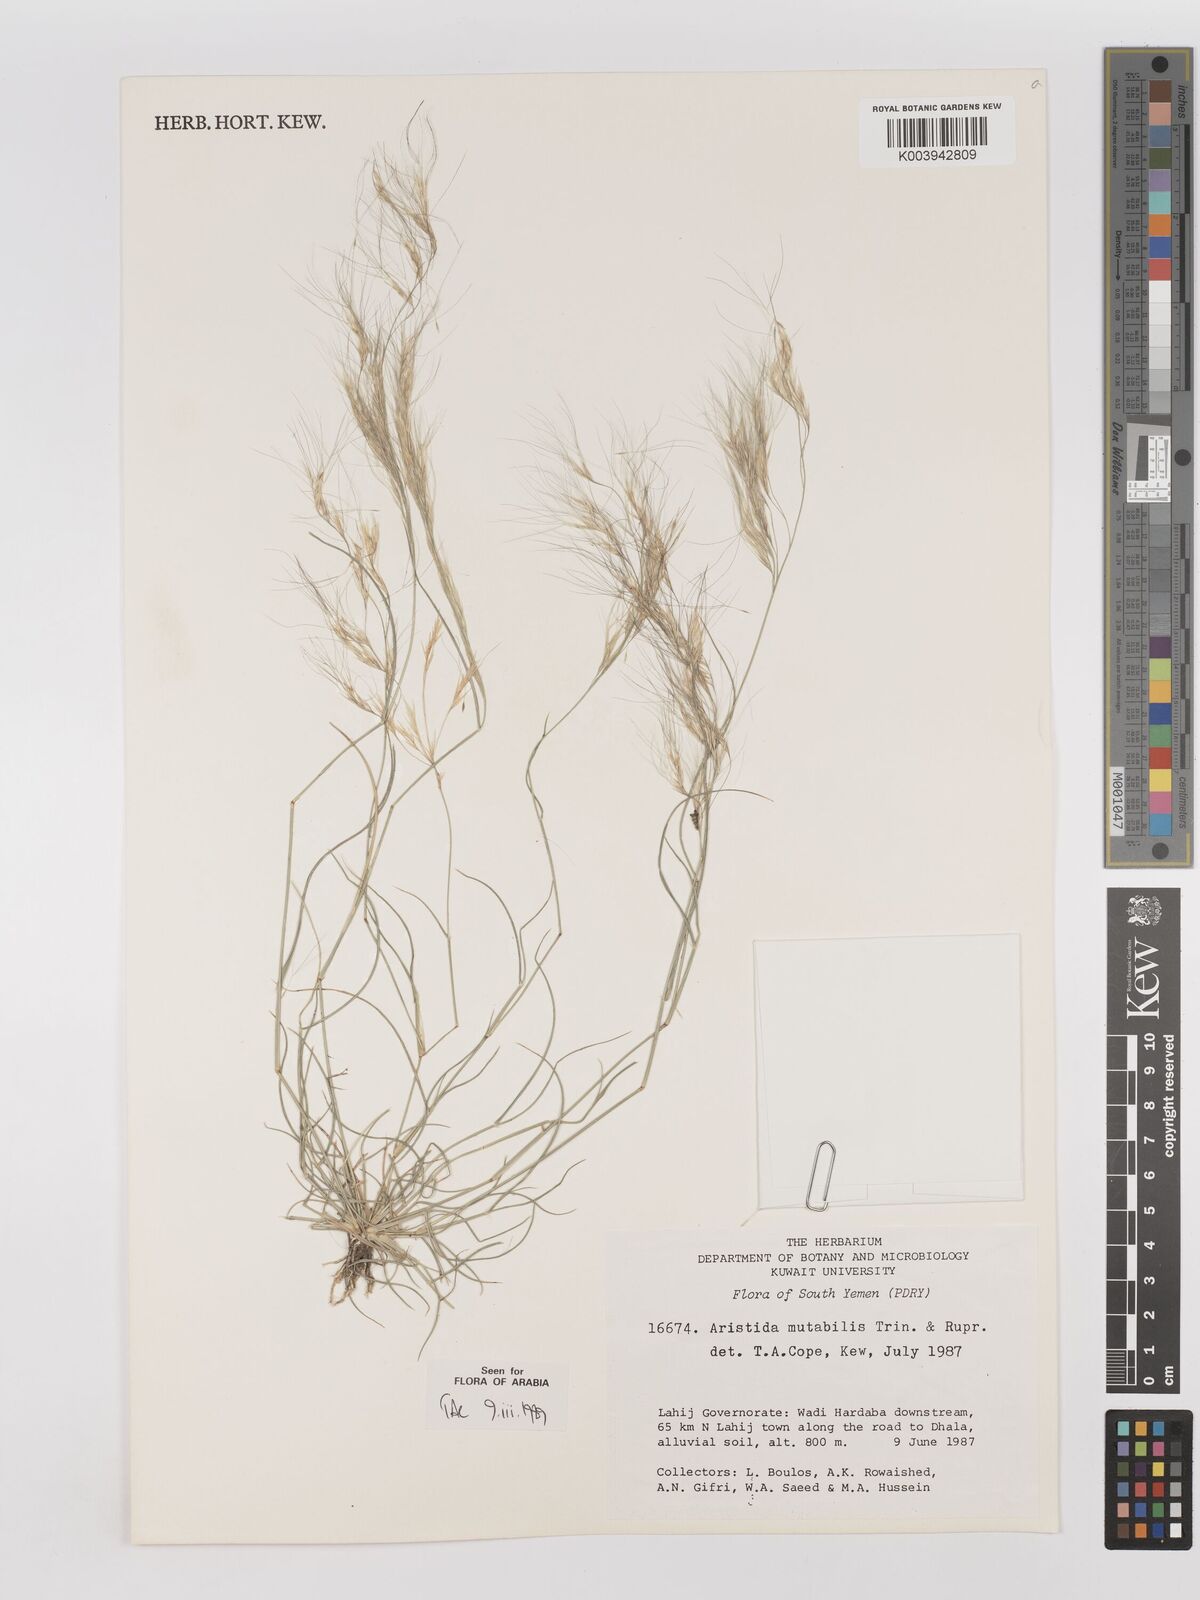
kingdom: Plantae
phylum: Tracheophyta
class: Liliopsida
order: Poales
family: Poaceae
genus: Aristida
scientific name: Aristida mutabilis
